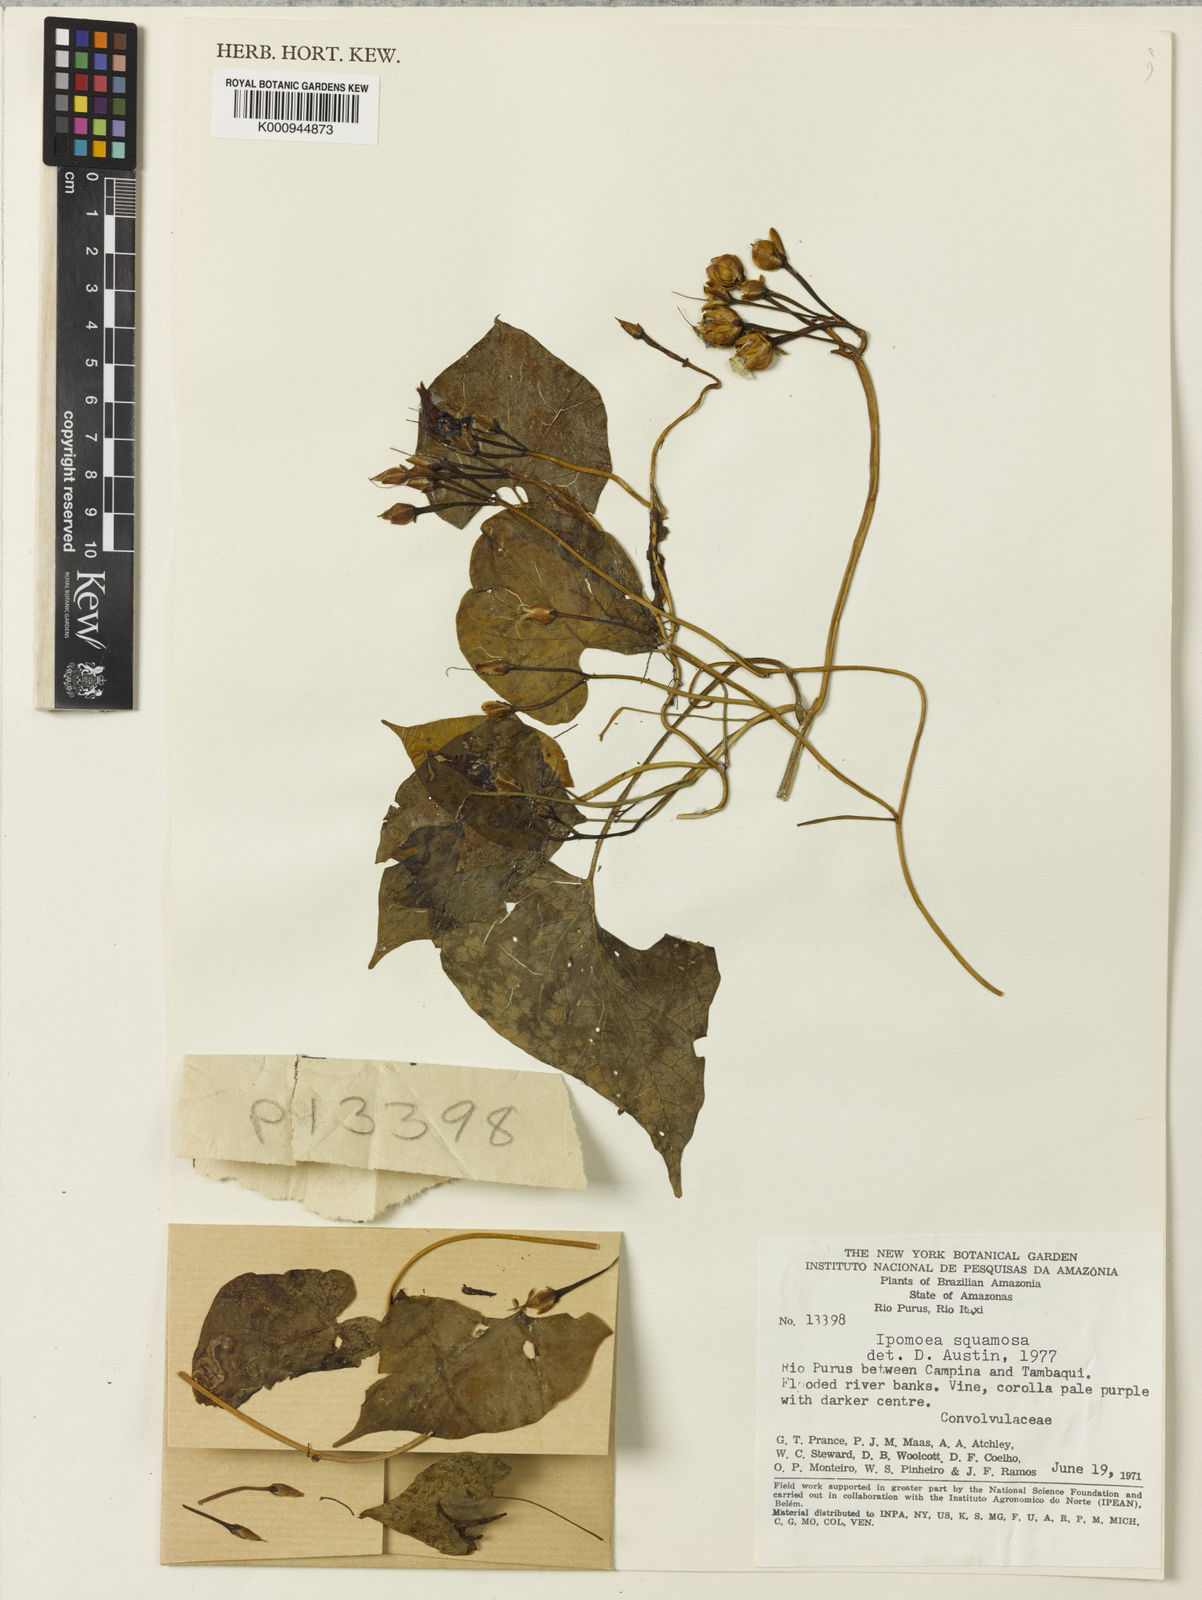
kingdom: Plantae
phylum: Tracheophyta
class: Magnoliopsida
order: Solanales
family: Convolvulaceae
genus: Ipomoea
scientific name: Ipomoea squamosa
